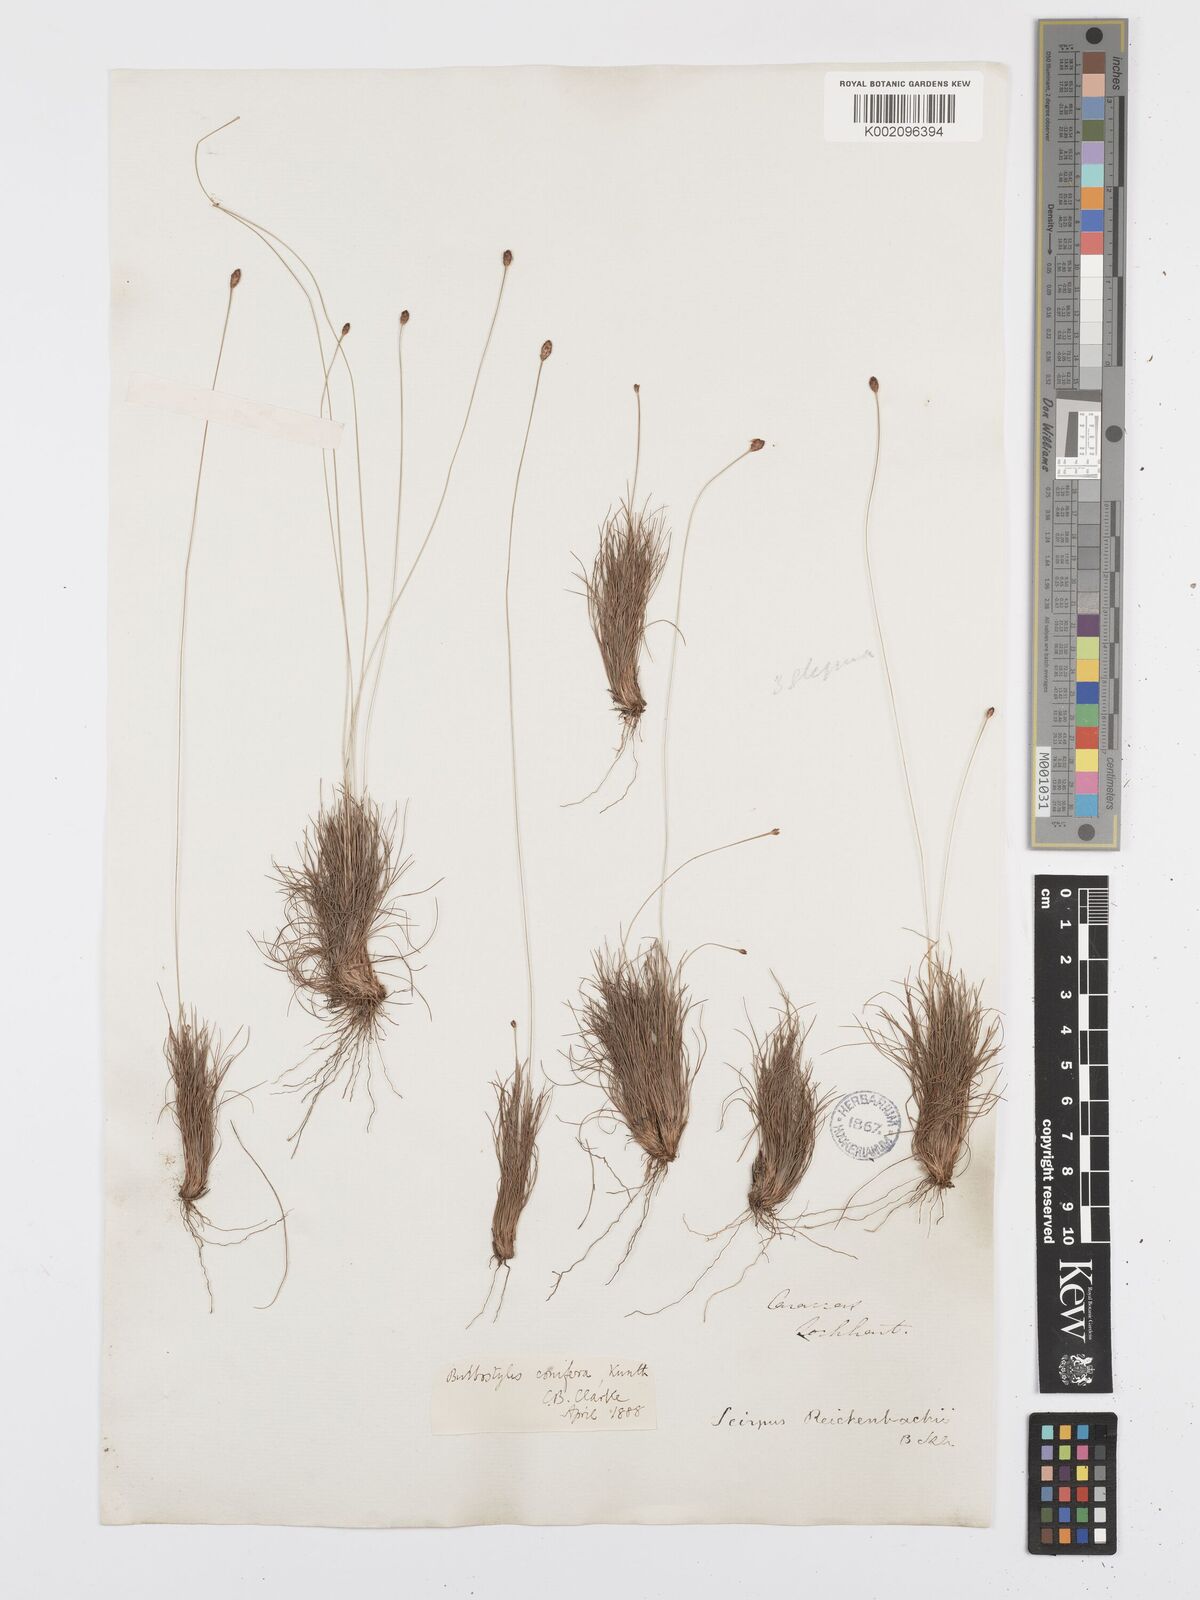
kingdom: Plantae
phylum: Tracheophyta
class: Liliopsida
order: Poales
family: Cyperaceae
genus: Bulbostylis
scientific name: Bulbostylis conifera
